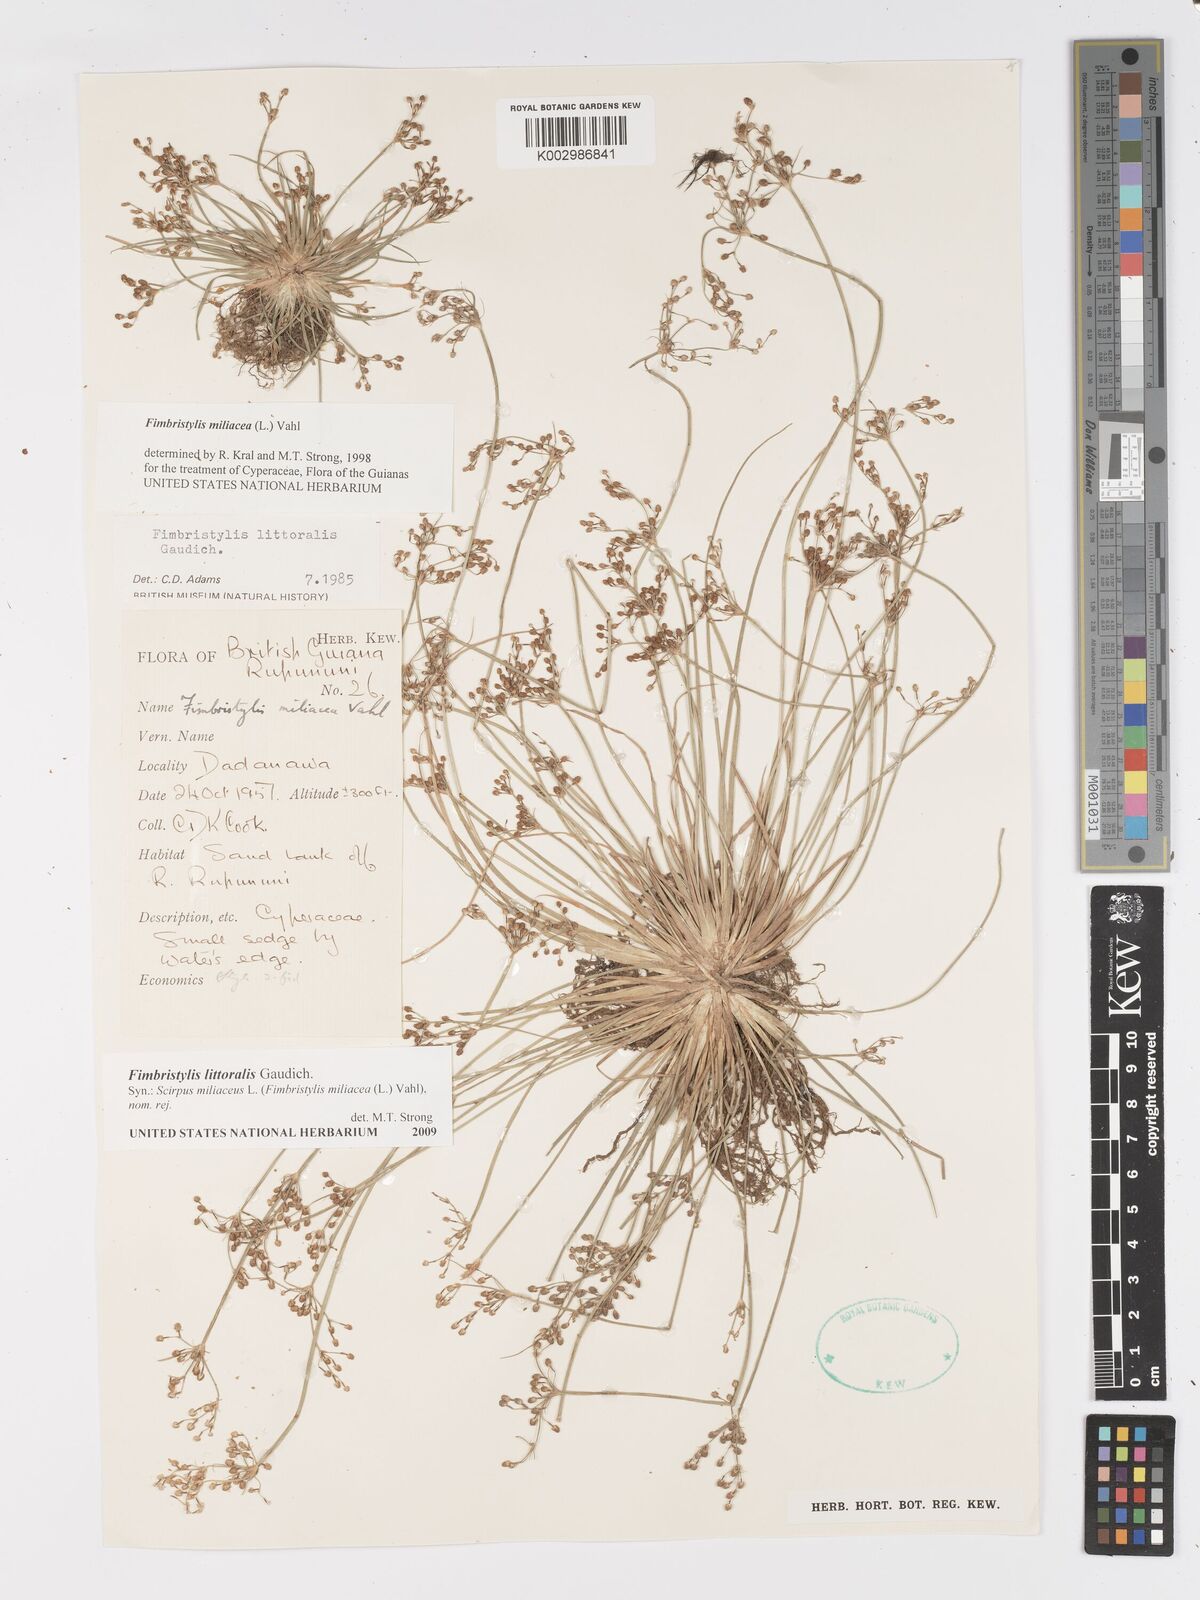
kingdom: Plantae
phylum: Tracheophyta
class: Liliopsida
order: Poales
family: Cyperaceae
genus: Fimbristylis
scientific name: Fimbristylis littoralis
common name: Fimbry
